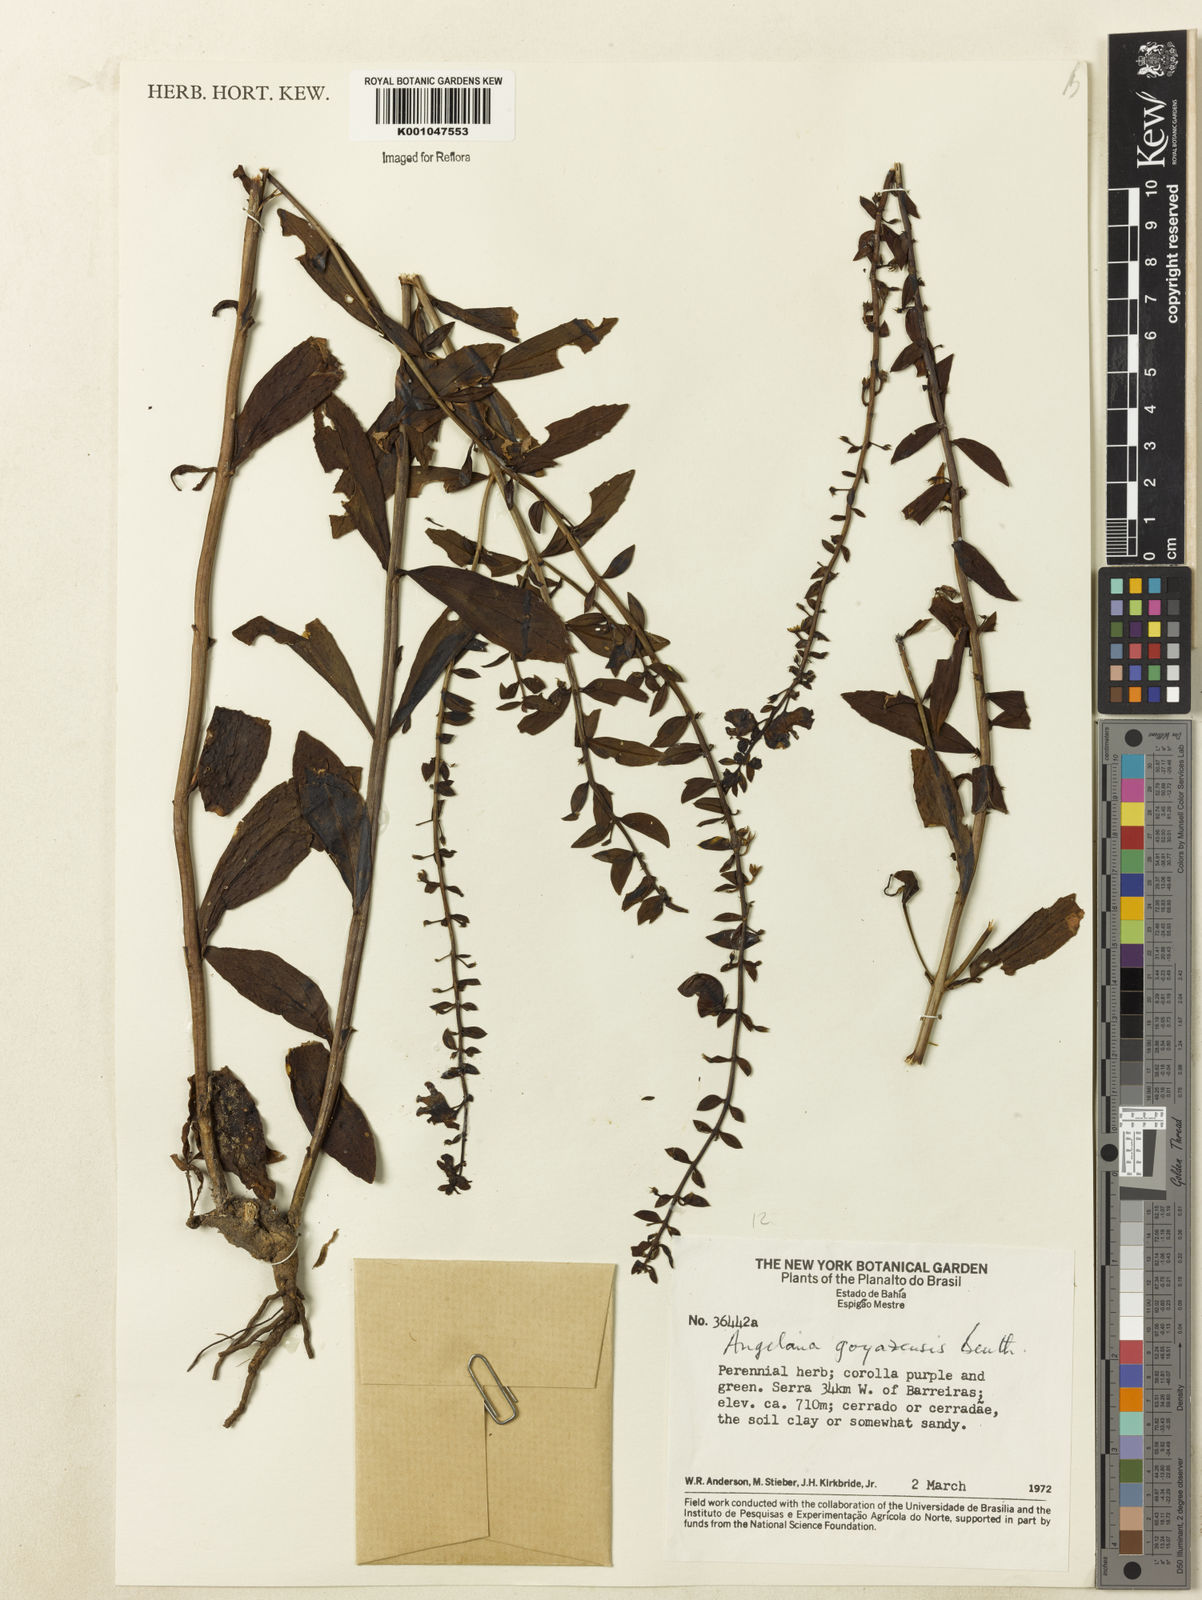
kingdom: Plantae
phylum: Tracheophyta
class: Magnoliopsida
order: Lamiales
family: Plantaginaceae
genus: Angelonia
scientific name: Angelonia goyazensis
